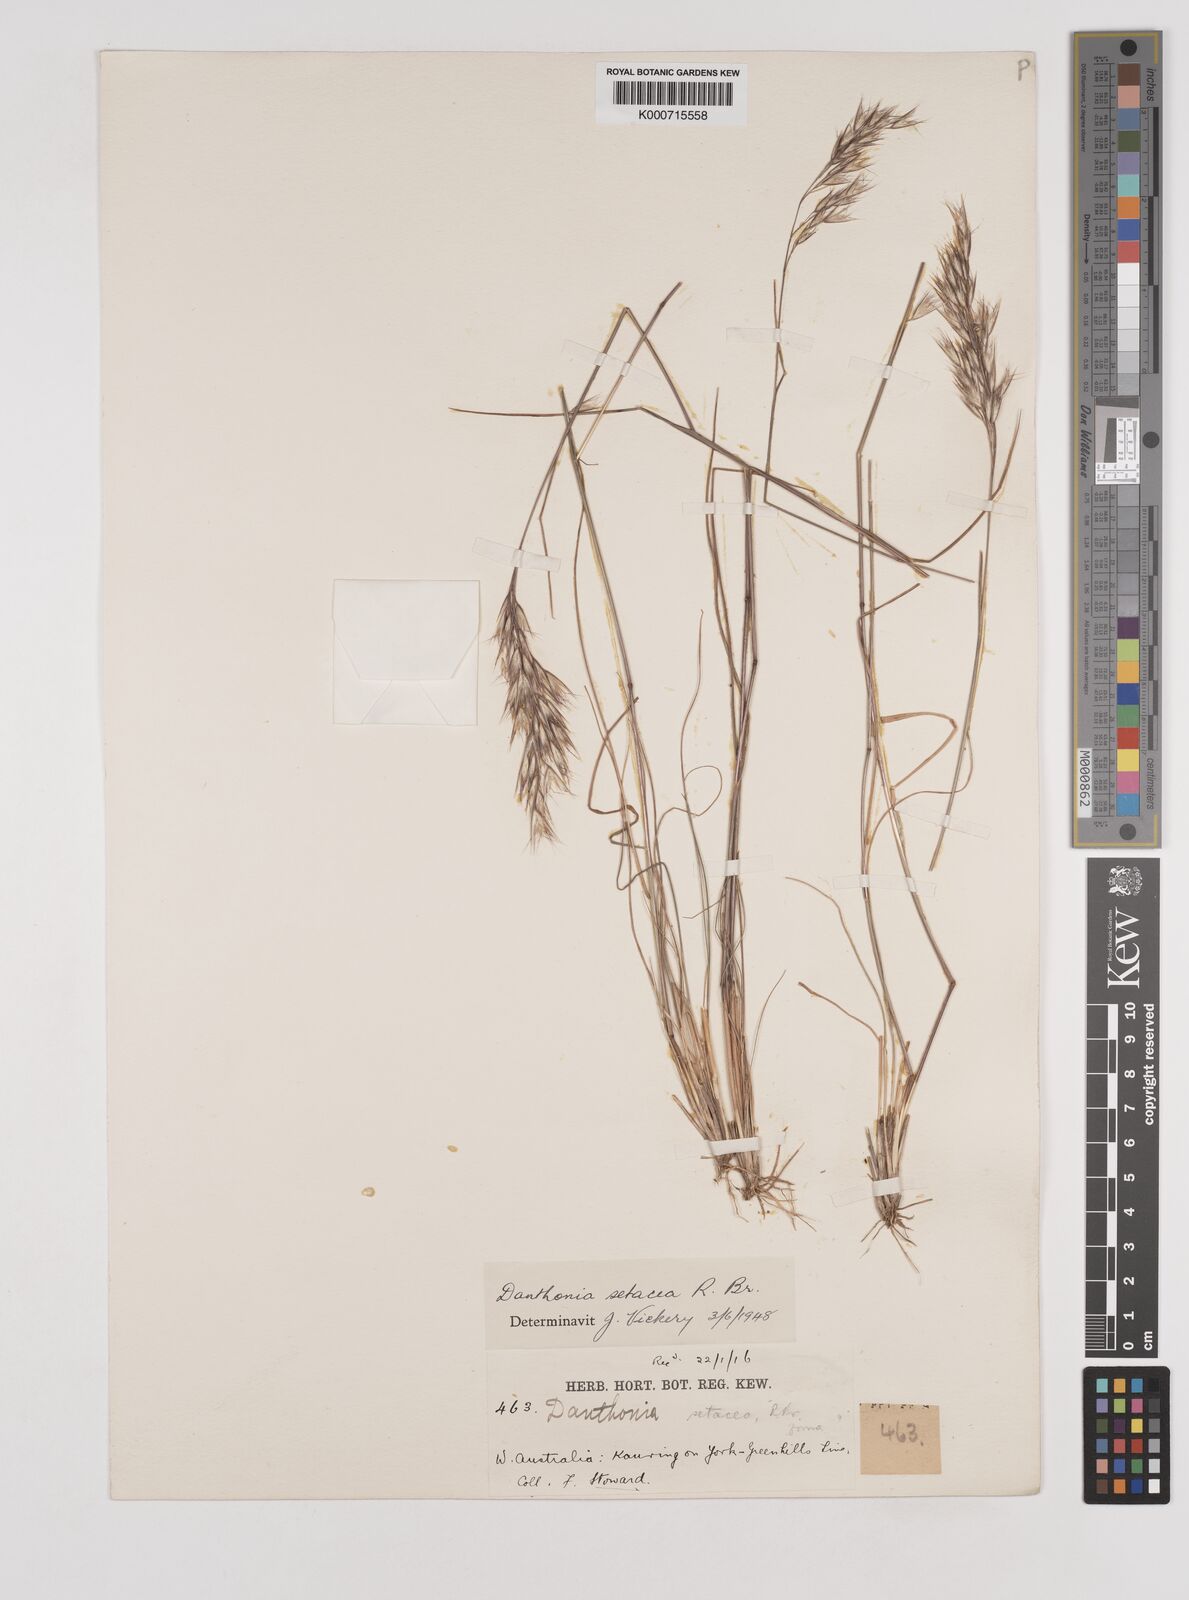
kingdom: Plantae
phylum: Tracheophyta
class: Liliopsida
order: Poales
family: Poaceae
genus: Rytidosperma
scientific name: Rytidosperma setaceum
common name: Small-flower wallaby grass
